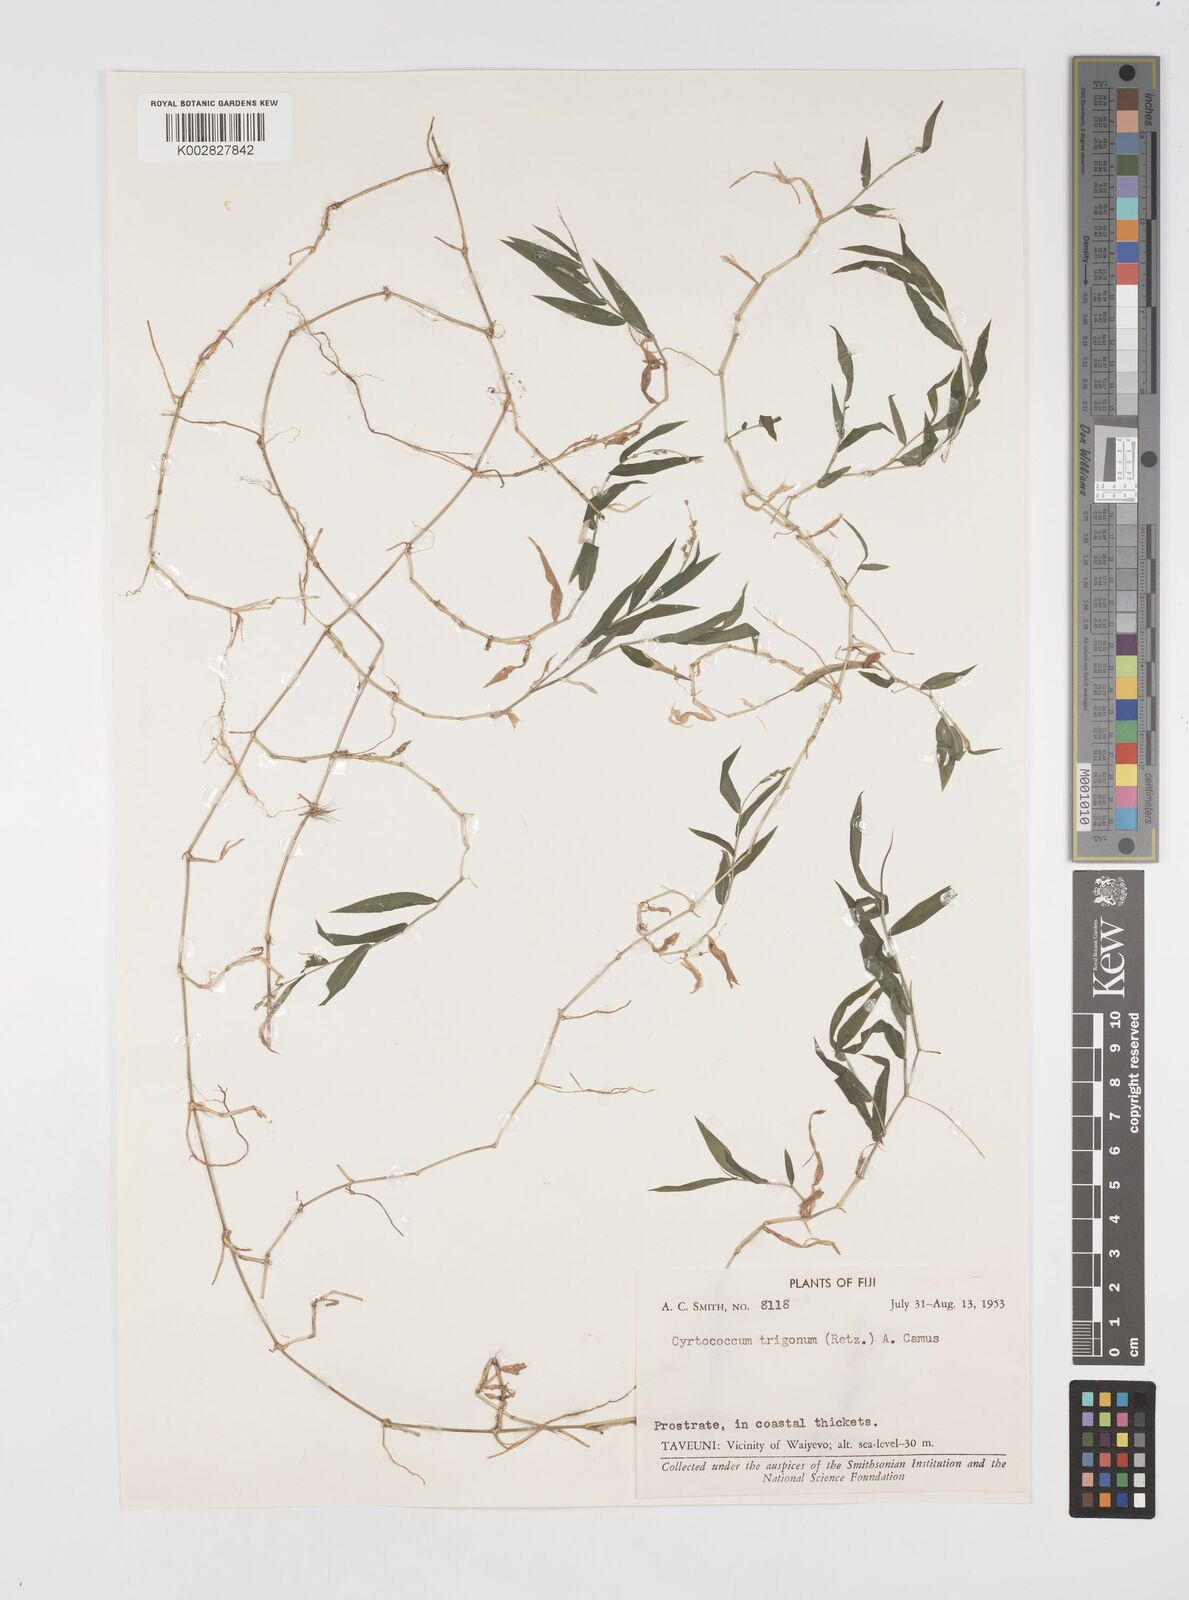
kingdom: Plantae
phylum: Tracheophyta
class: Liliopsida
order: Poales
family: Poaceae
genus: Cyrtococcum
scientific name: Cyrtococcum trigonum
